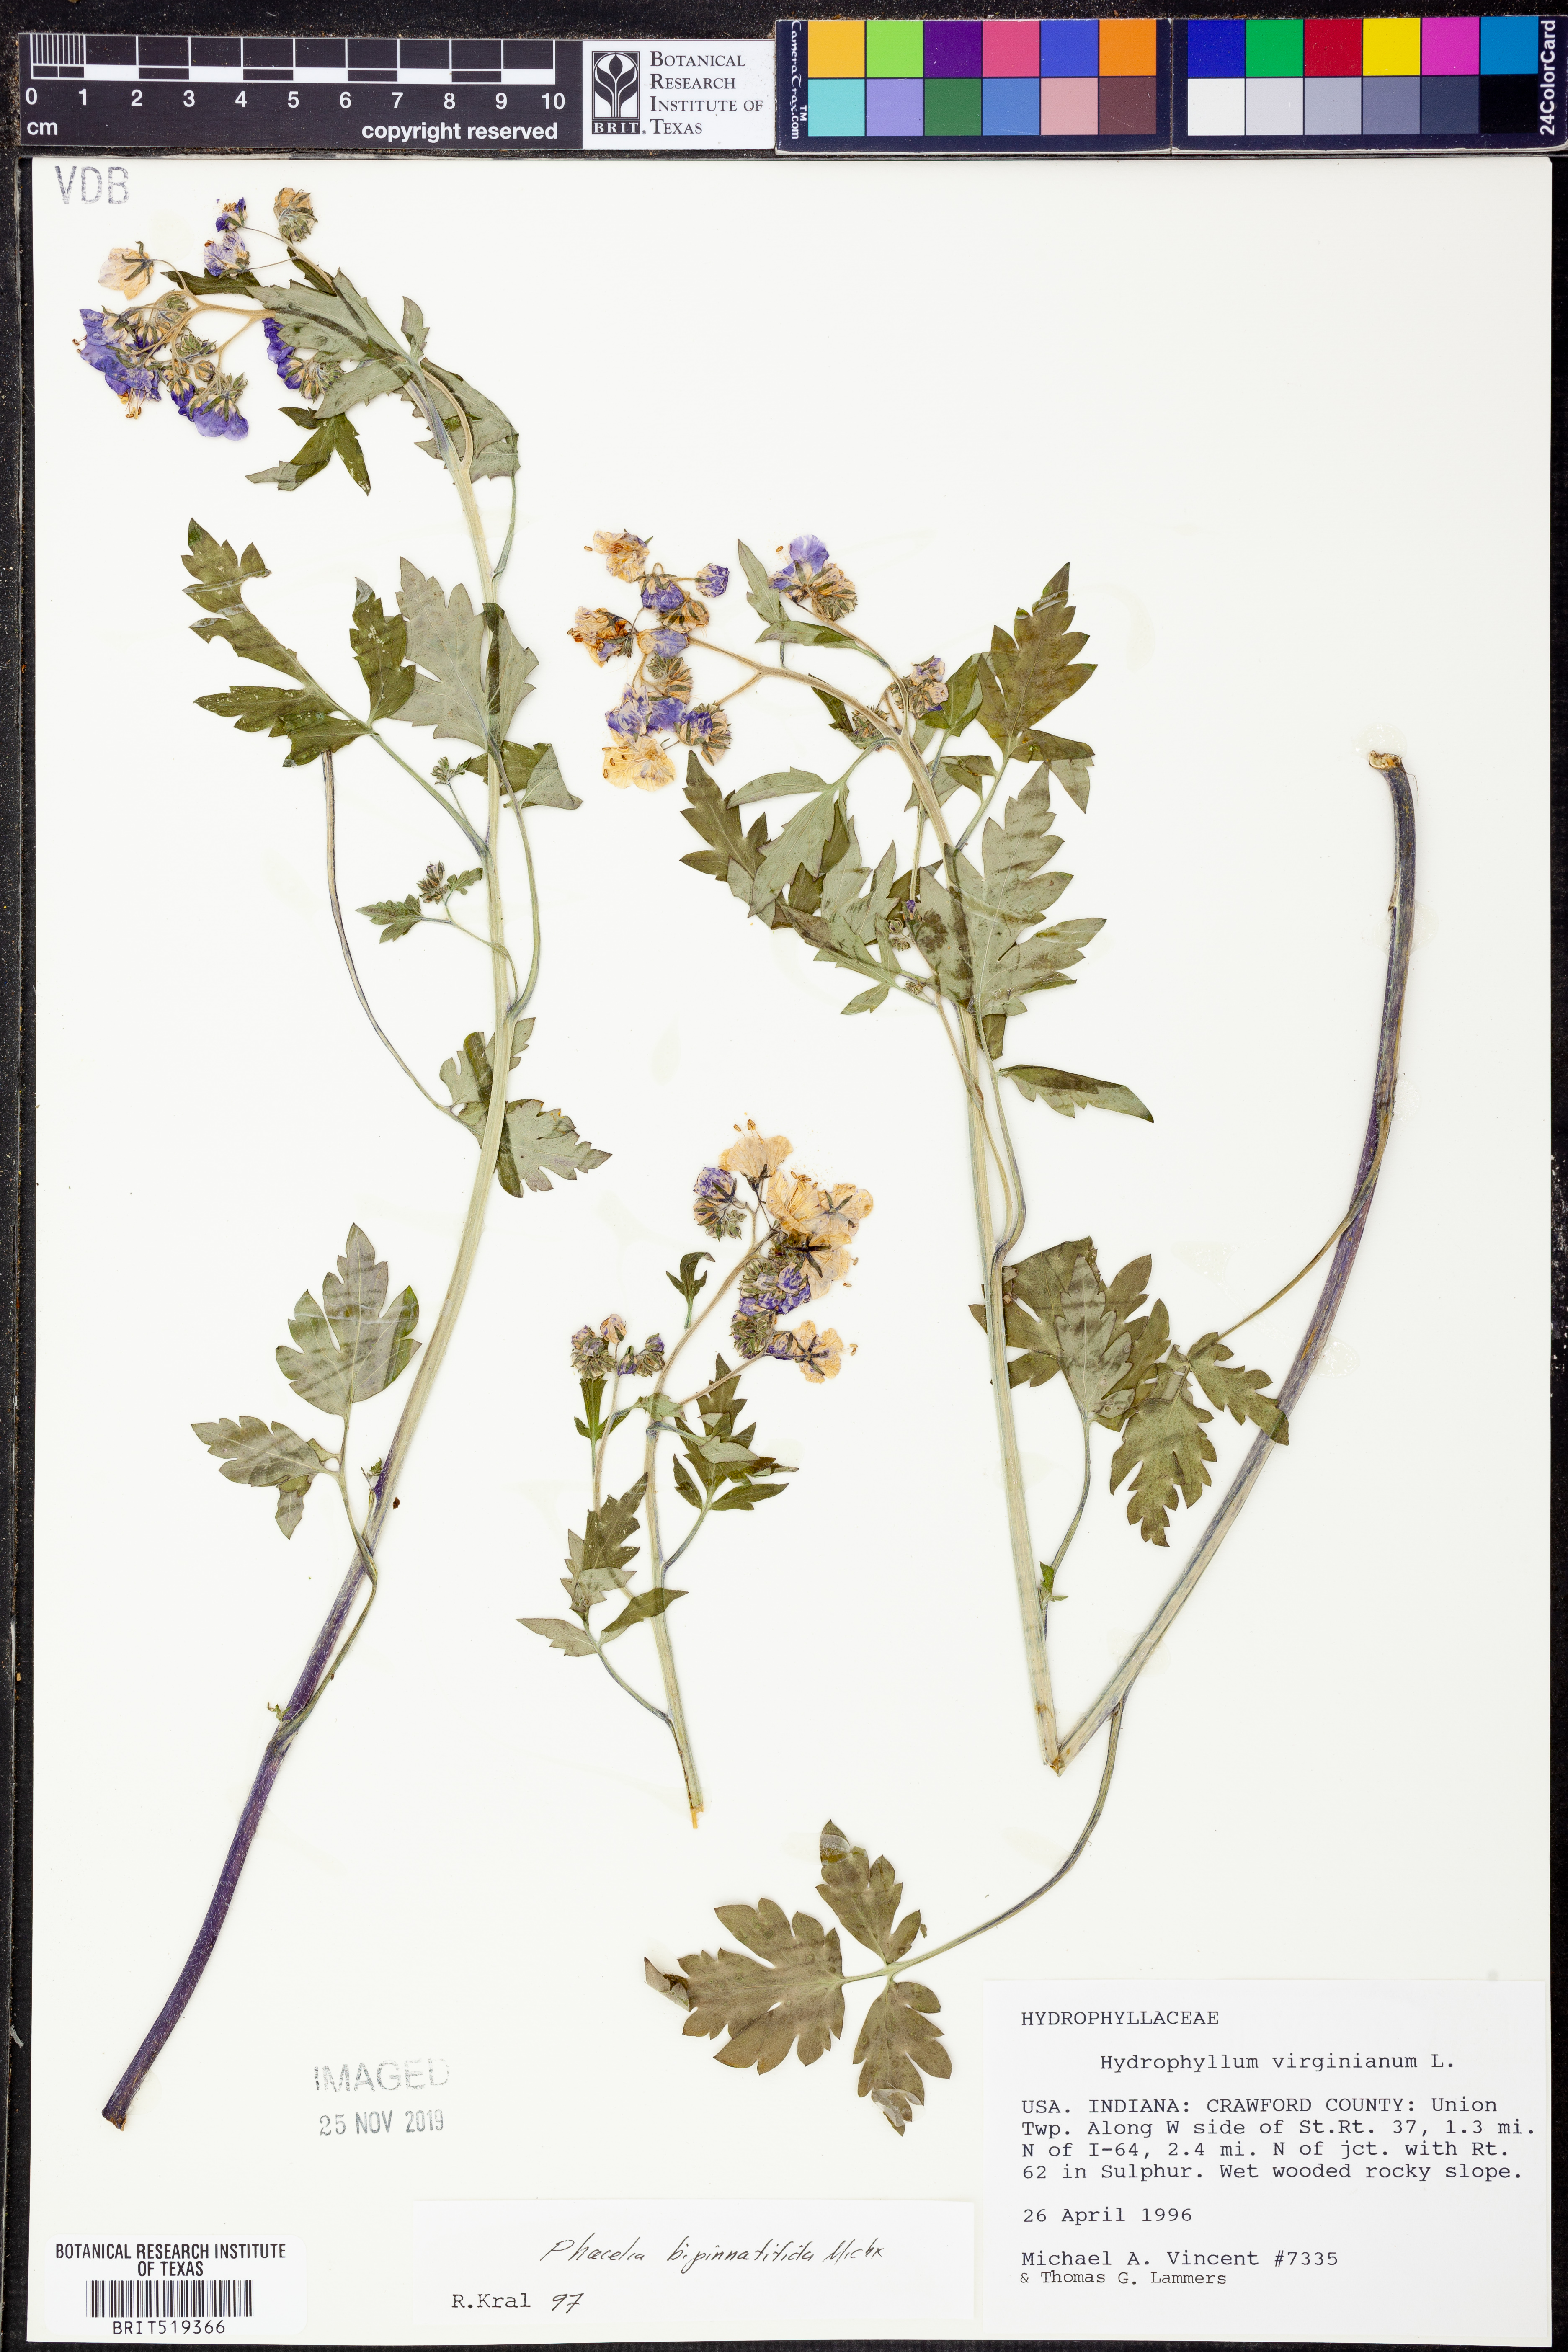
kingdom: Plantae
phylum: Tracheophyta
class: Magnoliopsida
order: Boraginales
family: Hydrophyllaceae
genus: Phacelia
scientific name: Phacelia bipinnatifida
